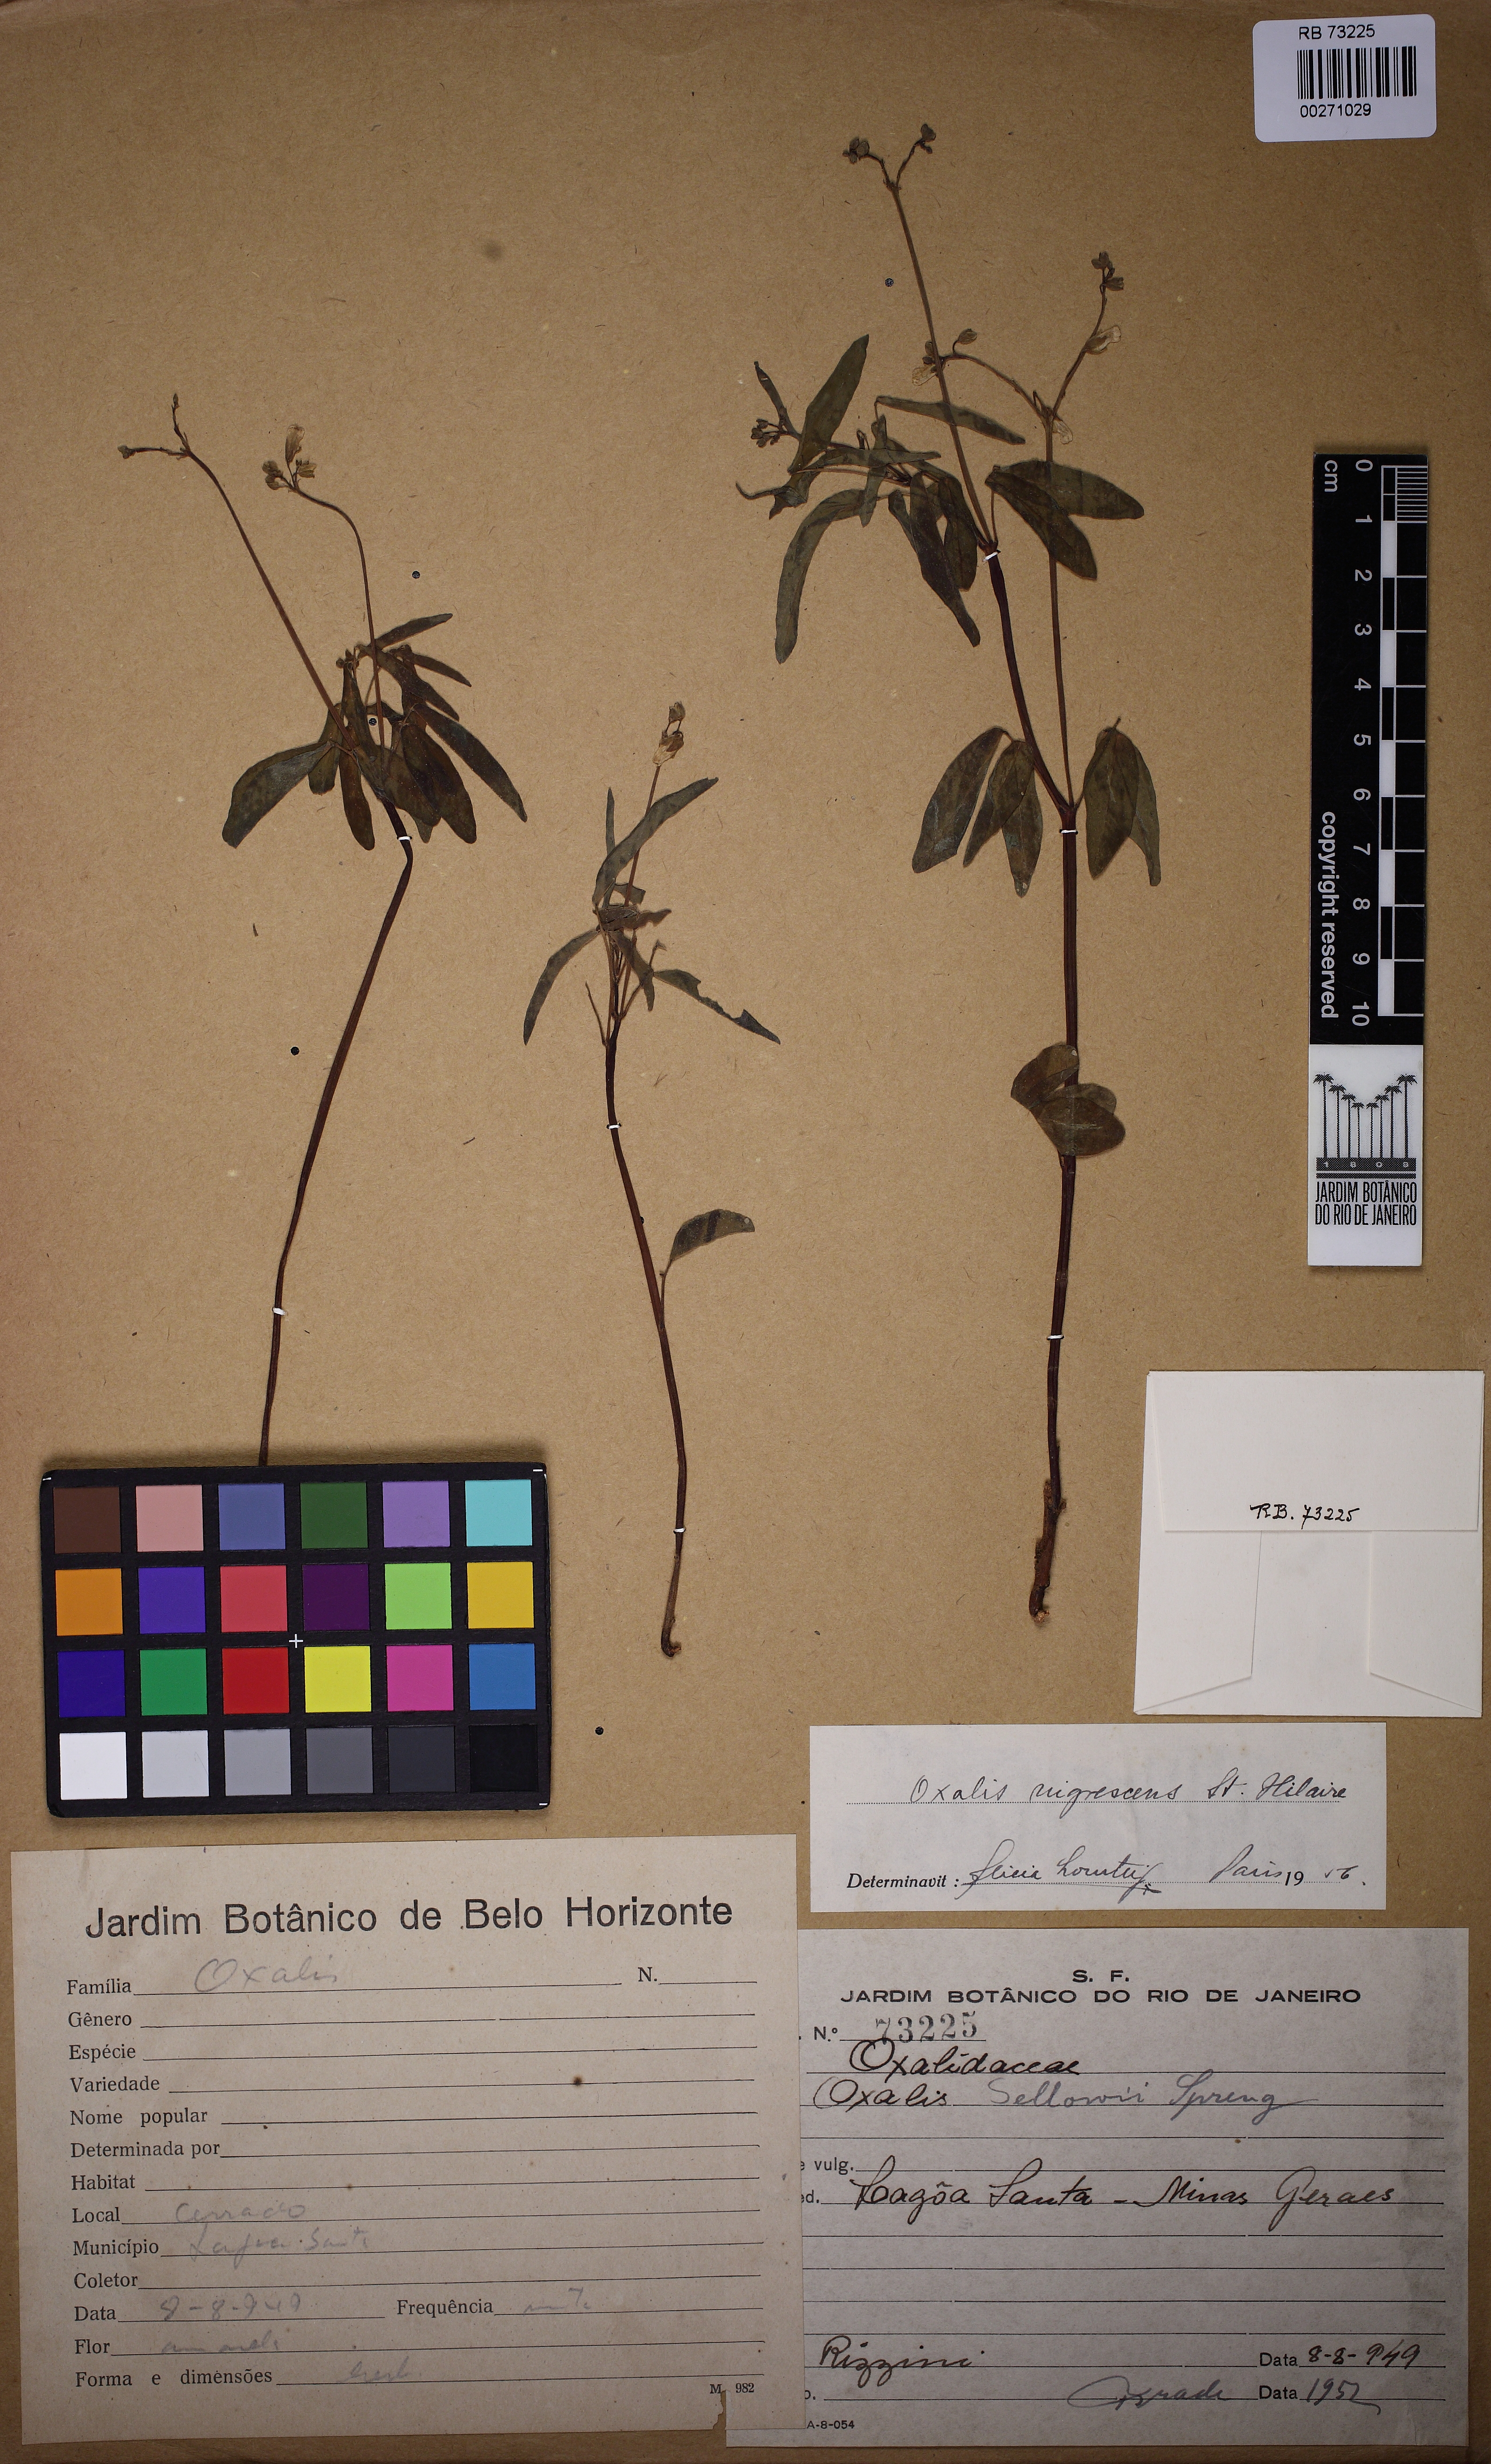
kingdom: Plantae
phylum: Tracheophyta
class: Magnoliopsida
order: Oxalidales
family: Oxalidaceae
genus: Oxalis
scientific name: Oxalis nigrescens
